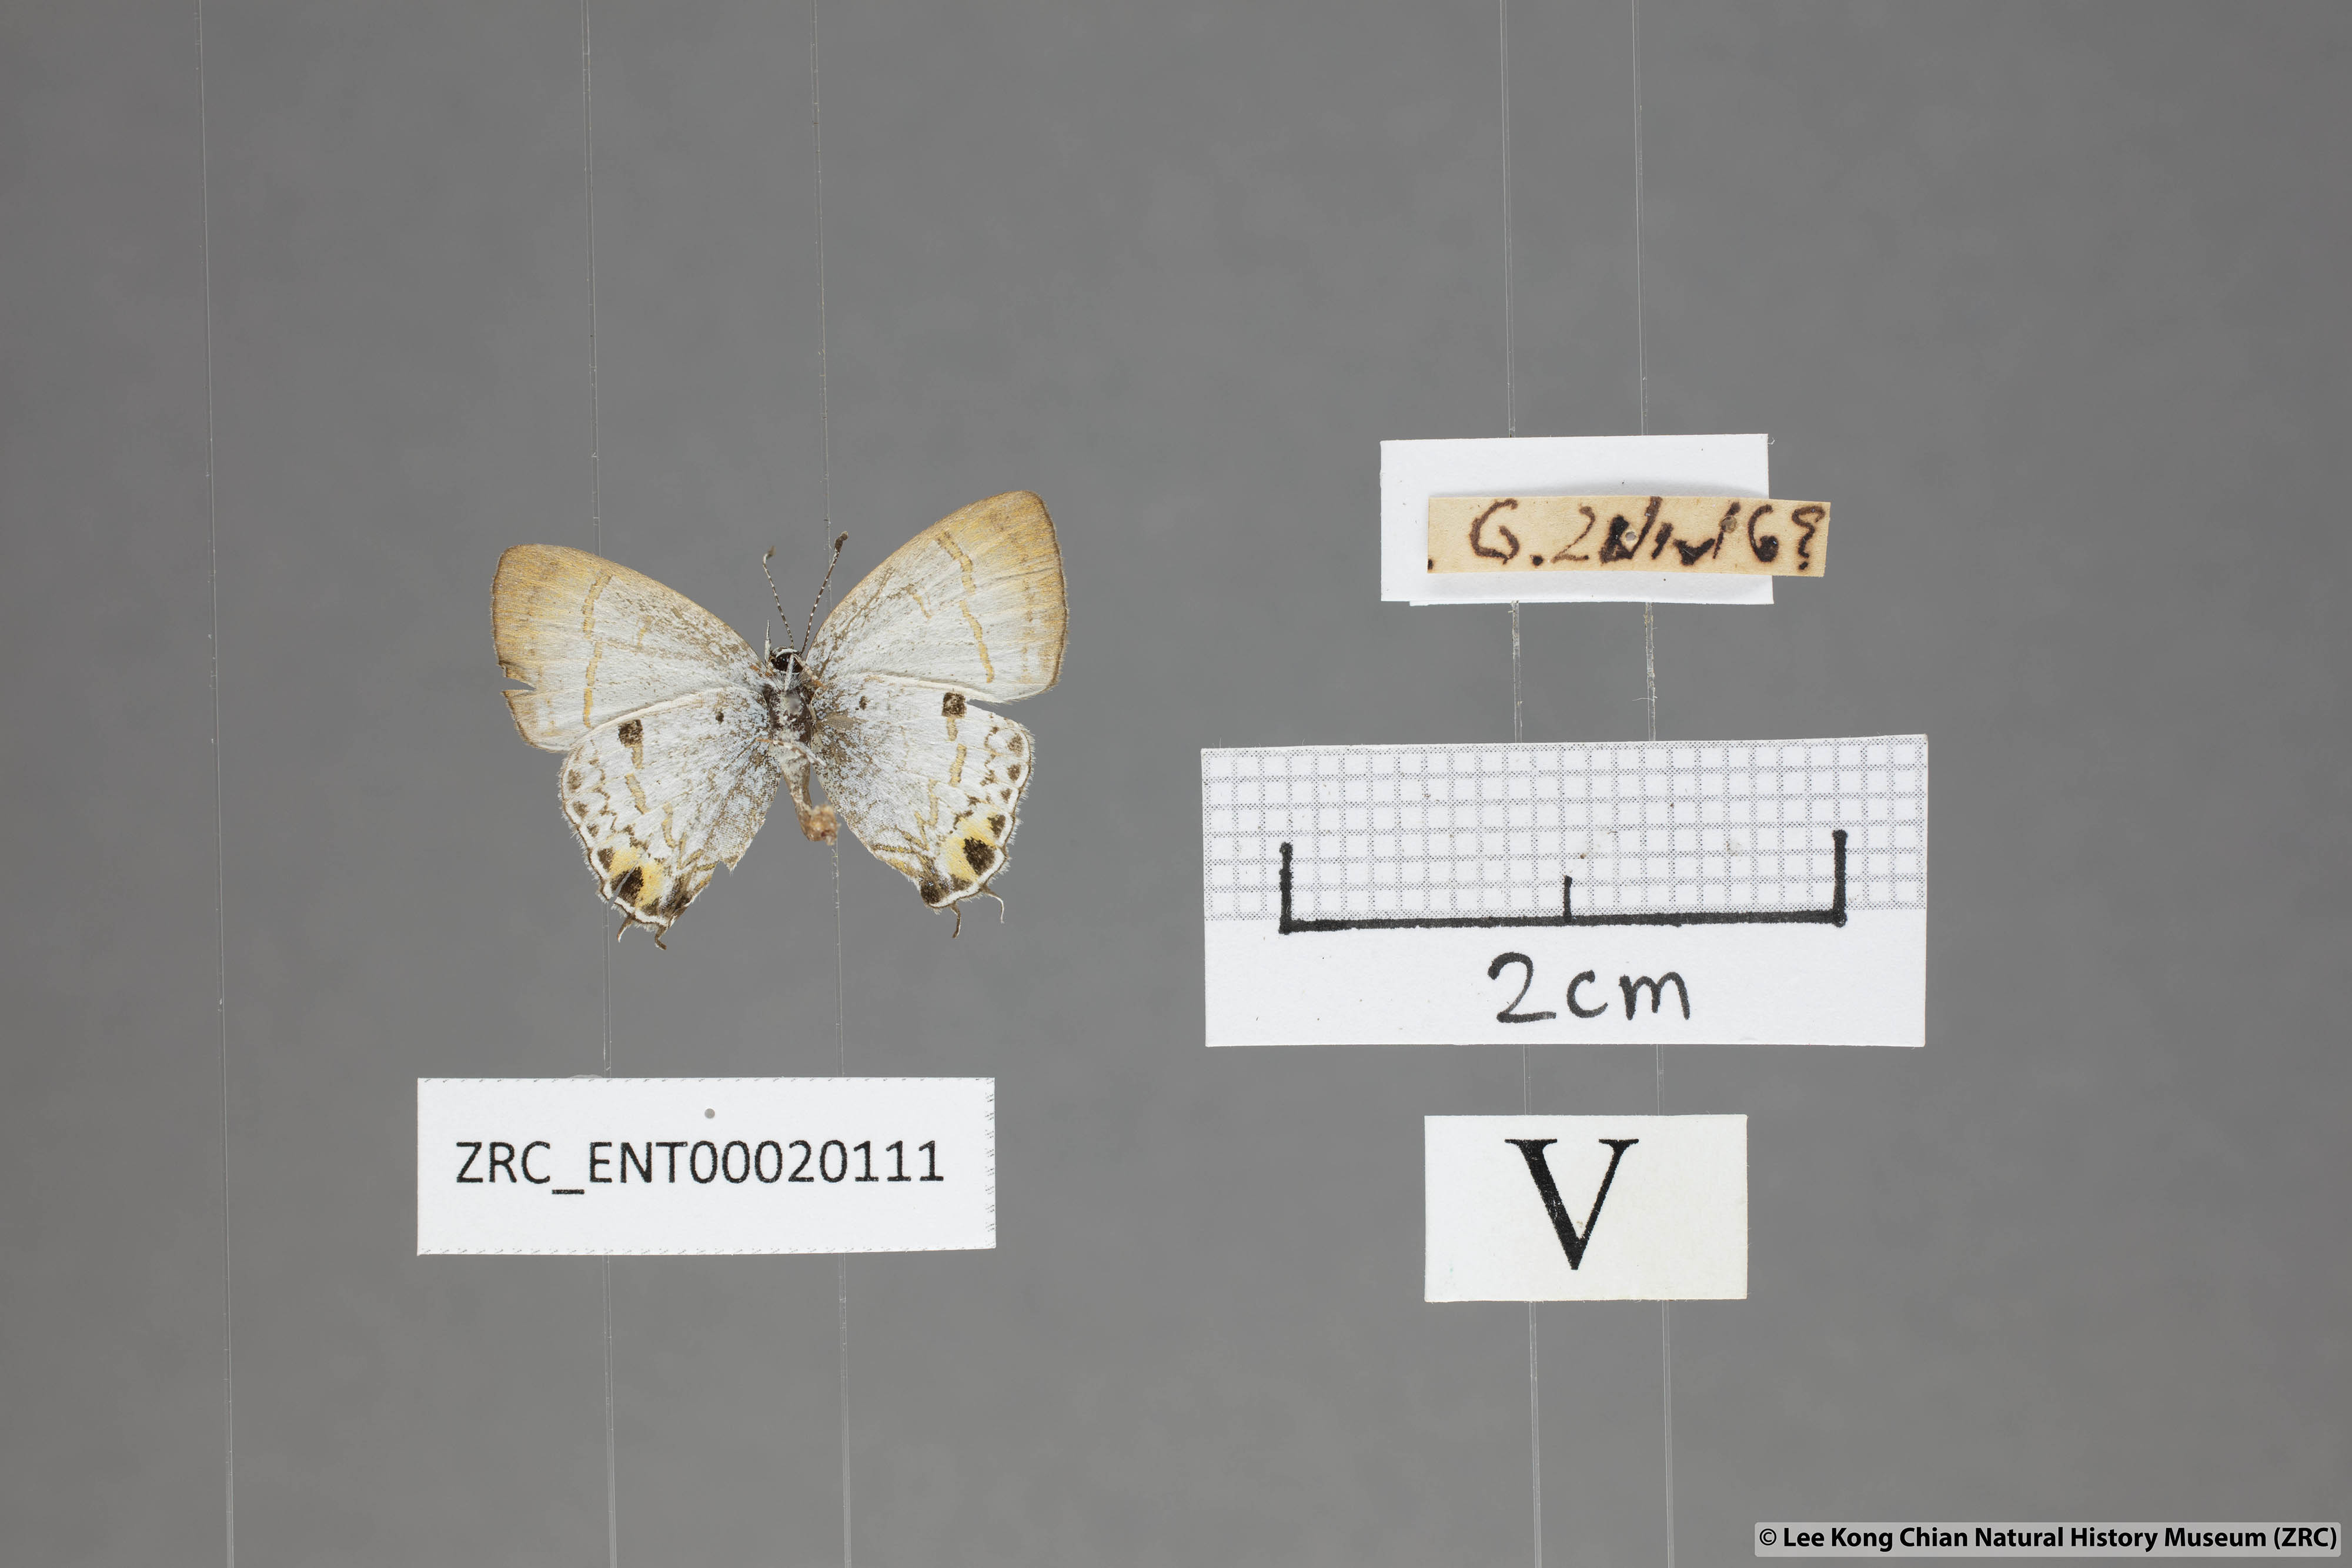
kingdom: Animalia
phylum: Arthropoda
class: Insecta
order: Lepidoptera
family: Lycaenidae
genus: Chliaria
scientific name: Chliaria othona
